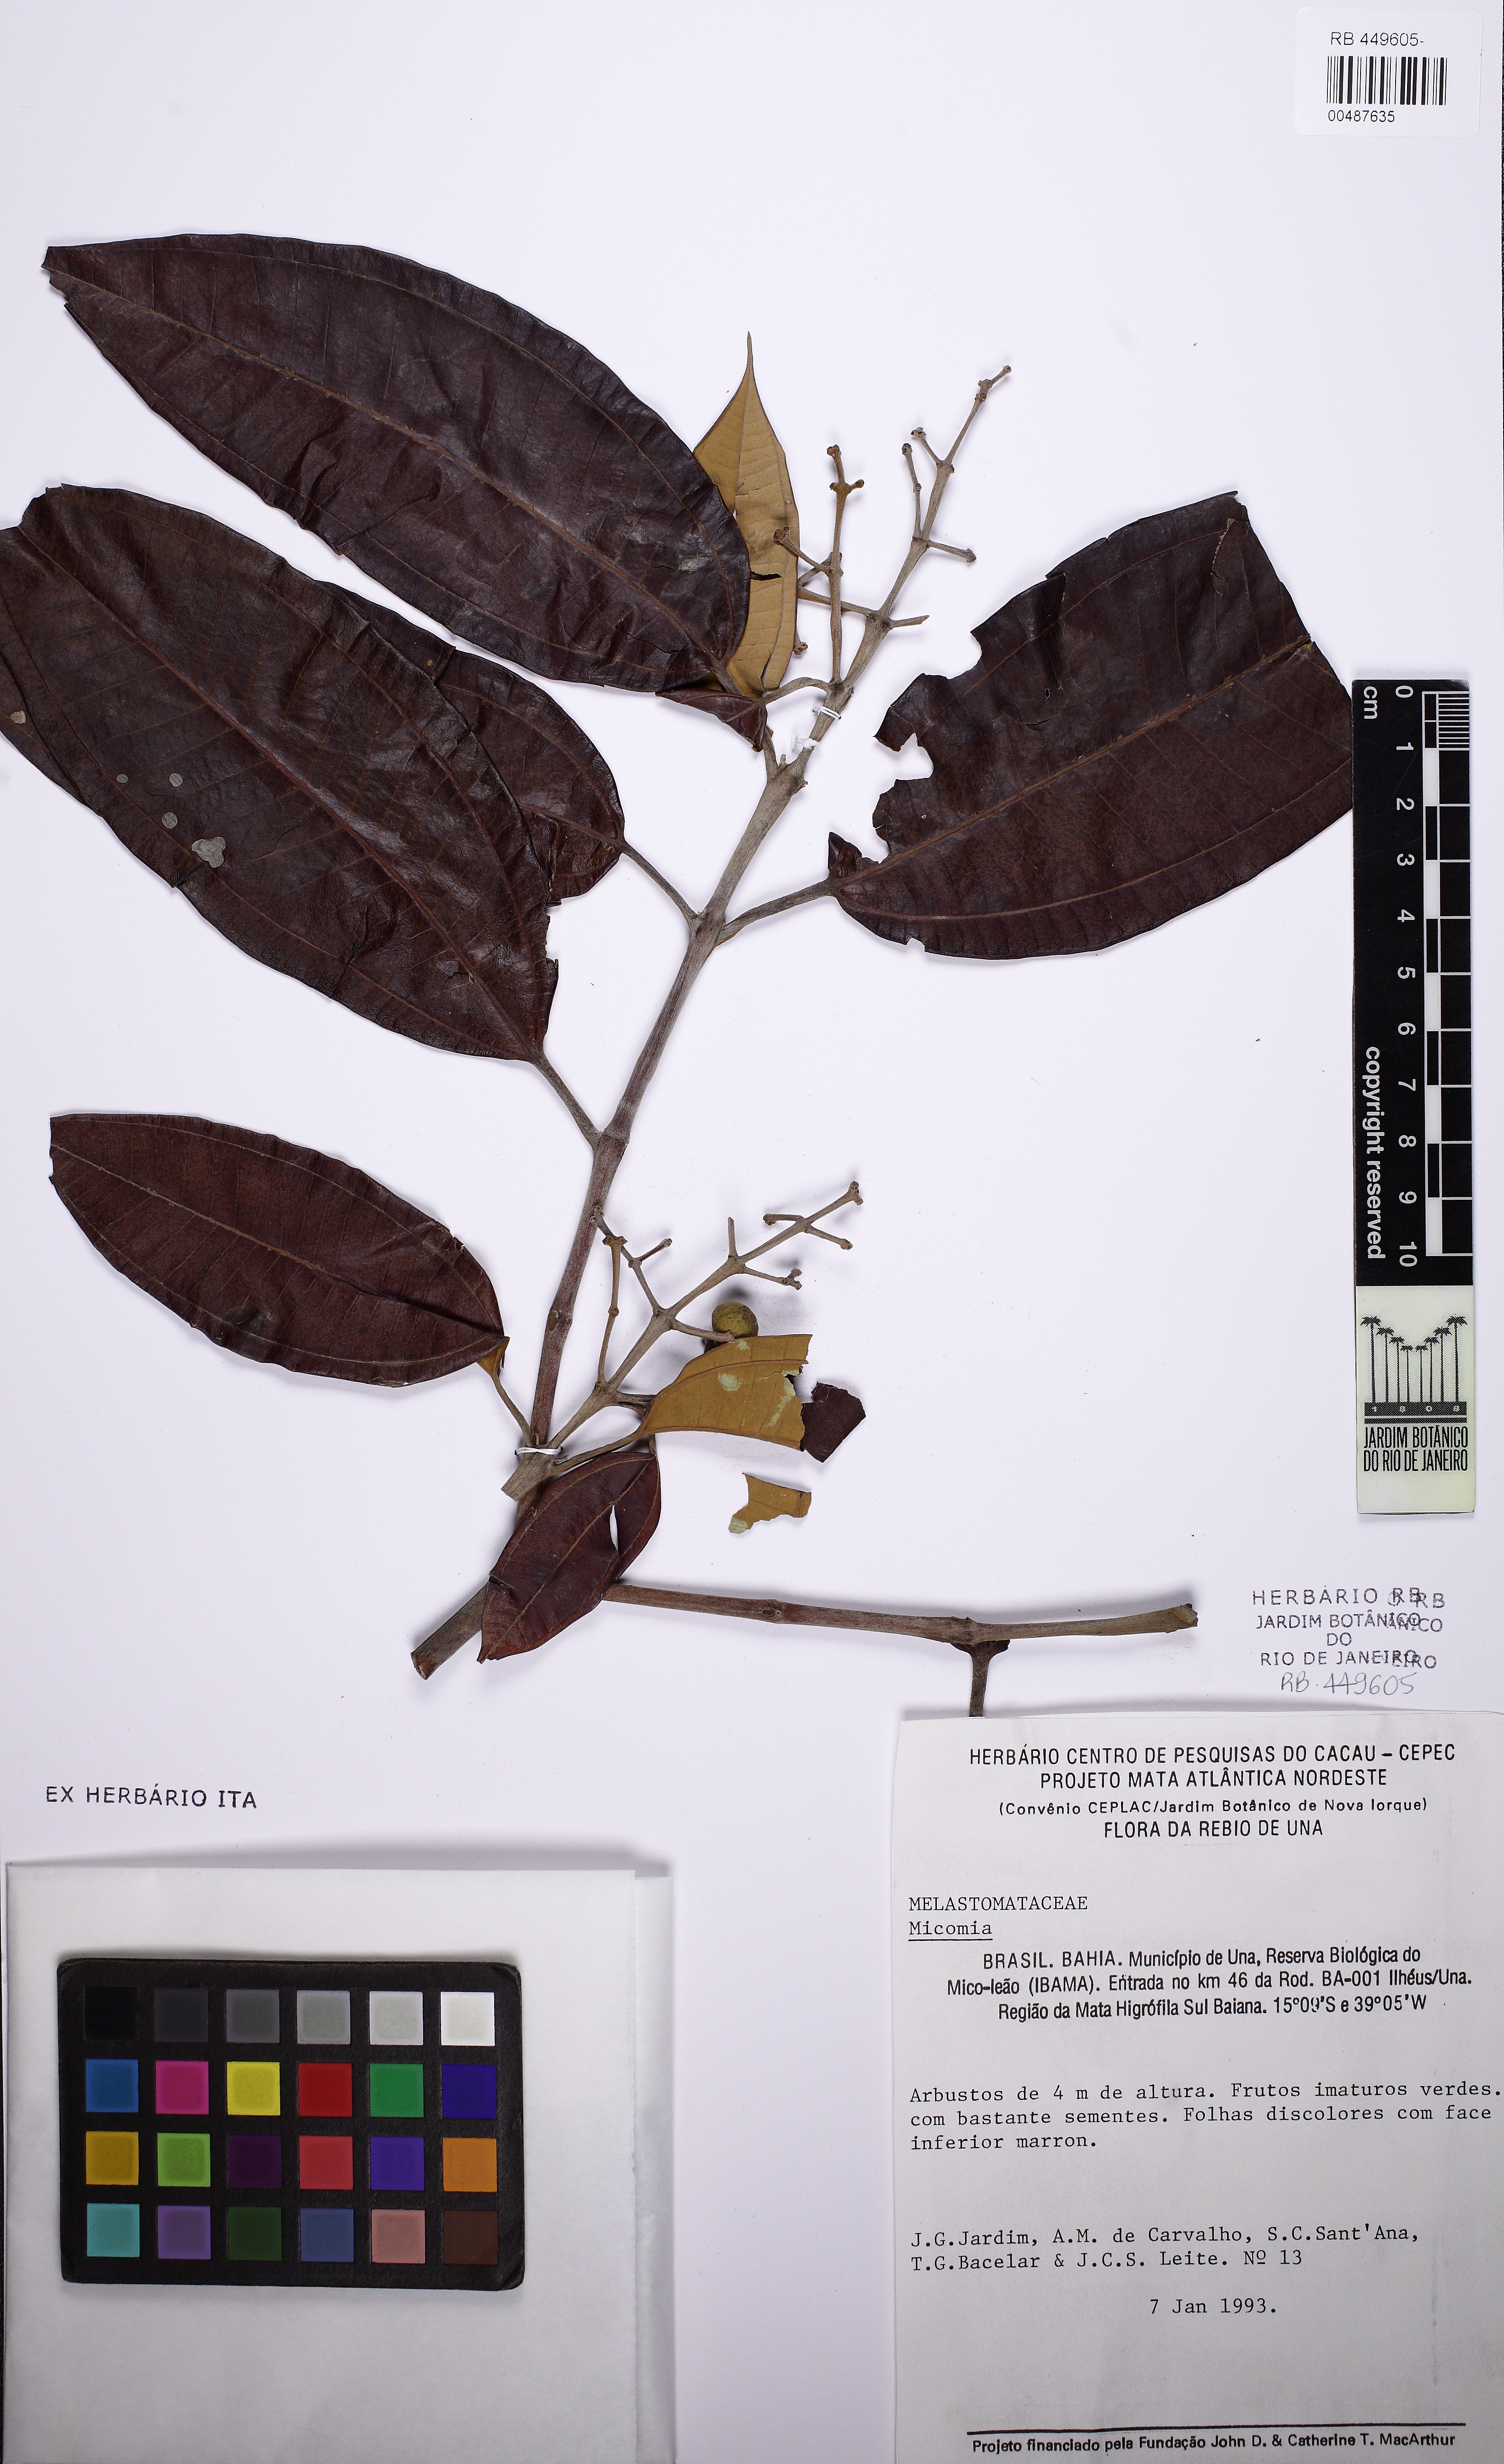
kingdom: Plantae
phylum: Tracheophyta
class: Magnoliopsida
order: Myrtales
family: Melastomataceae
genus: Miconia
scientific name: Miconia
